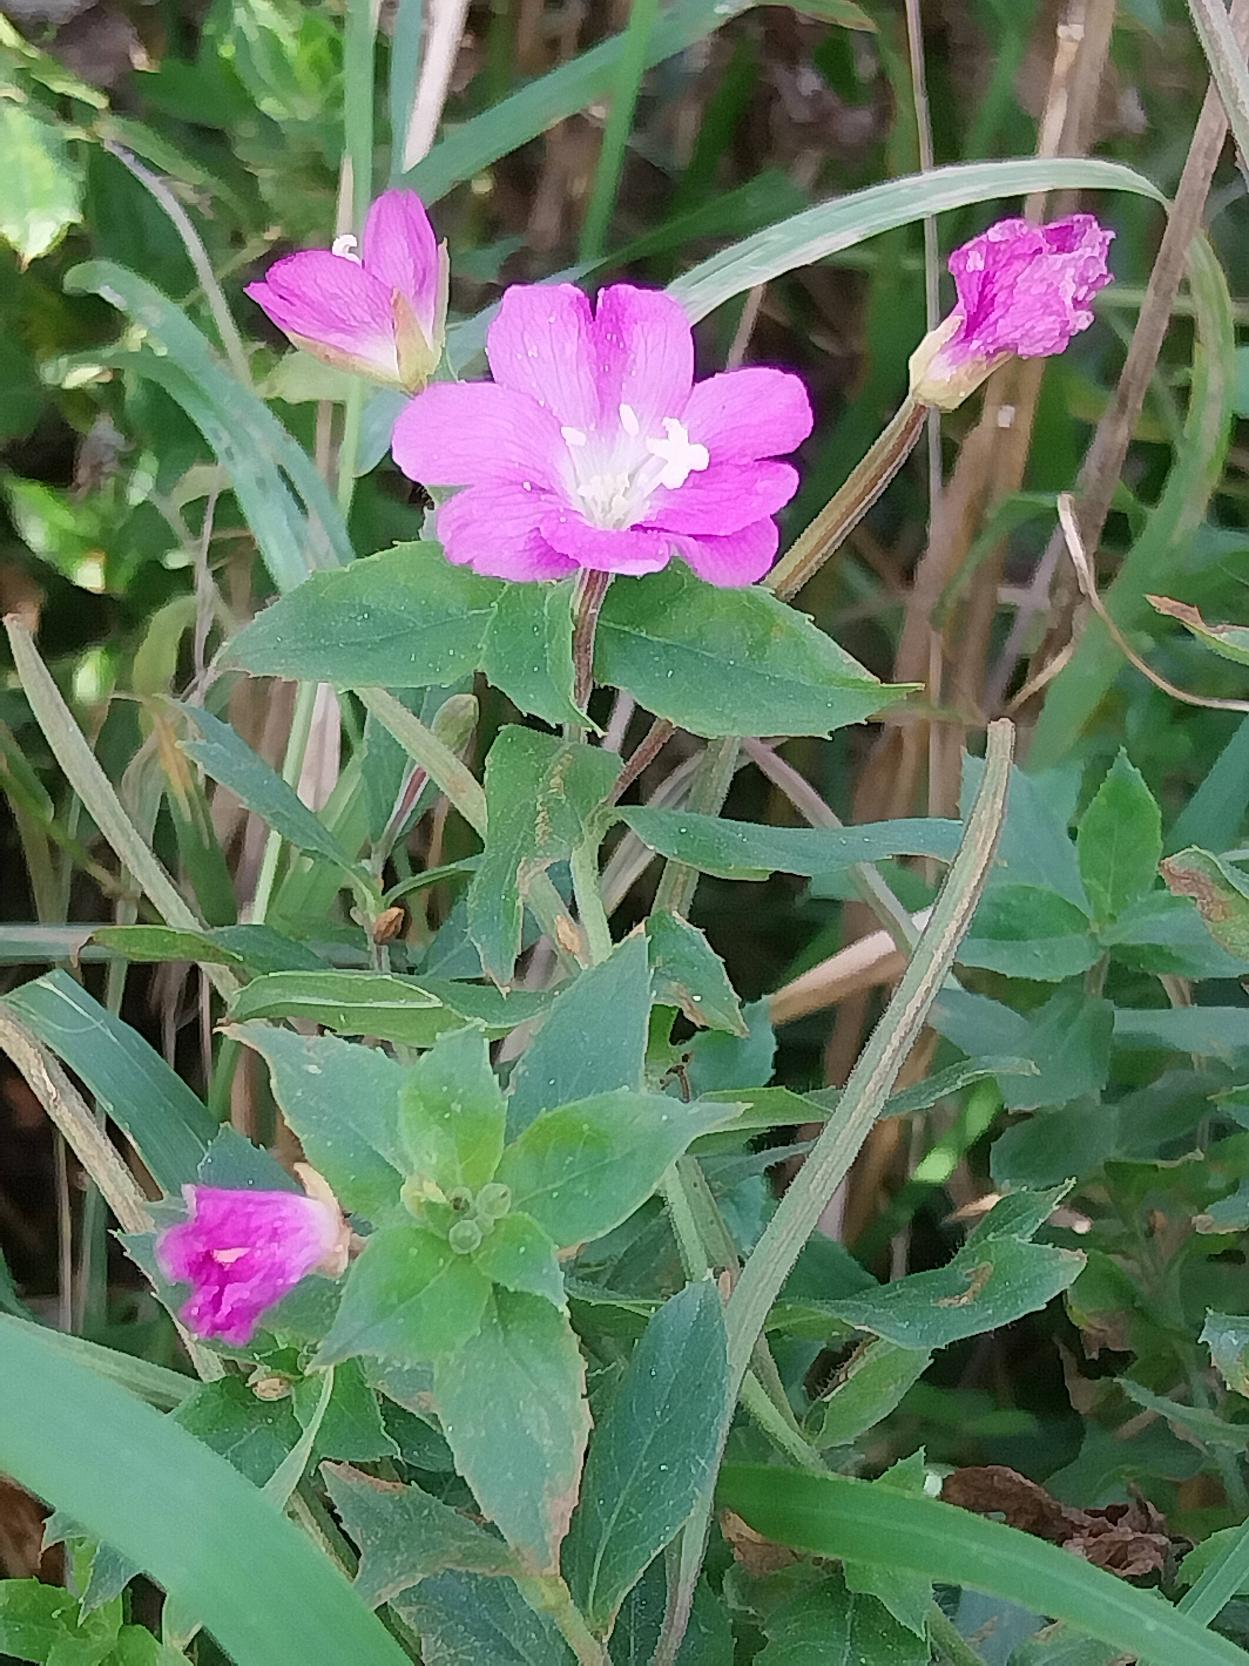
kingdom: Plantae
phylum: Tracheophyta
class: Magnoliopsida
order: Myrtales
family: Onagraceae
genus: Epilobium
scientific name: Epilobium hirsutum
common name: Lådden dueurt
